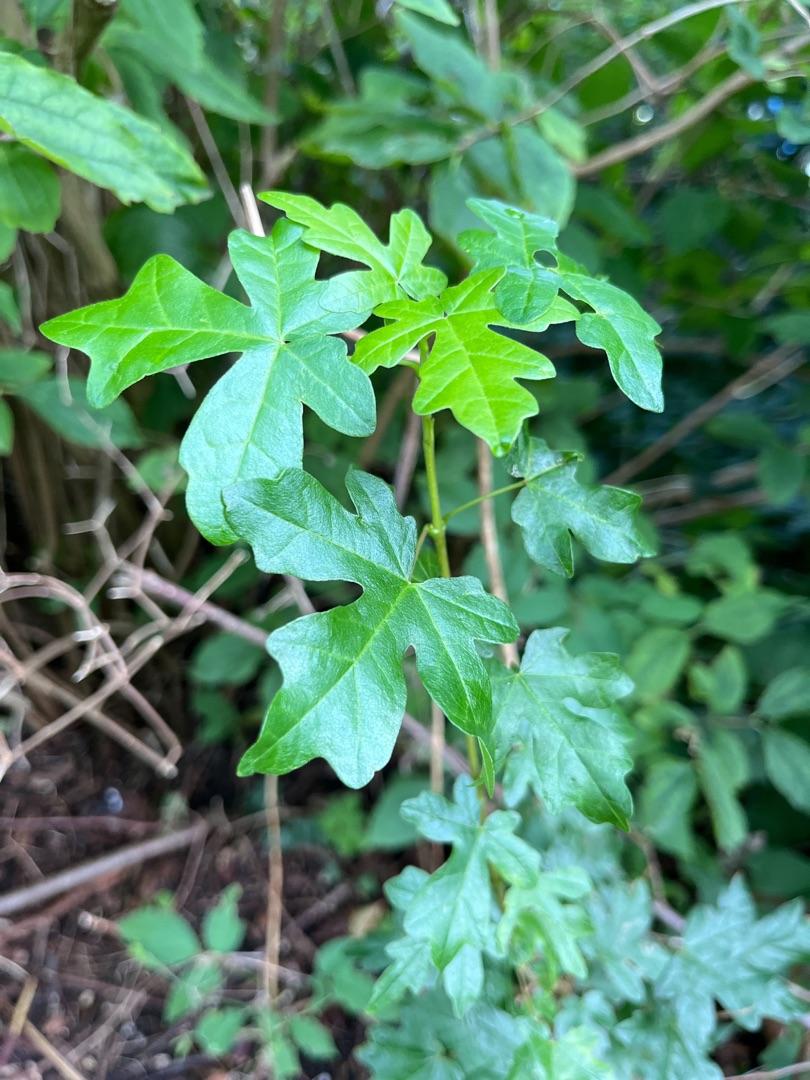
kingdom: Plantae
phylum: Tracheophyta
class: Magnoliopsida
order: Sapindales
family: Sapindaceae
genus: Acer
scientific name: Acer campestre
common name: Navr
